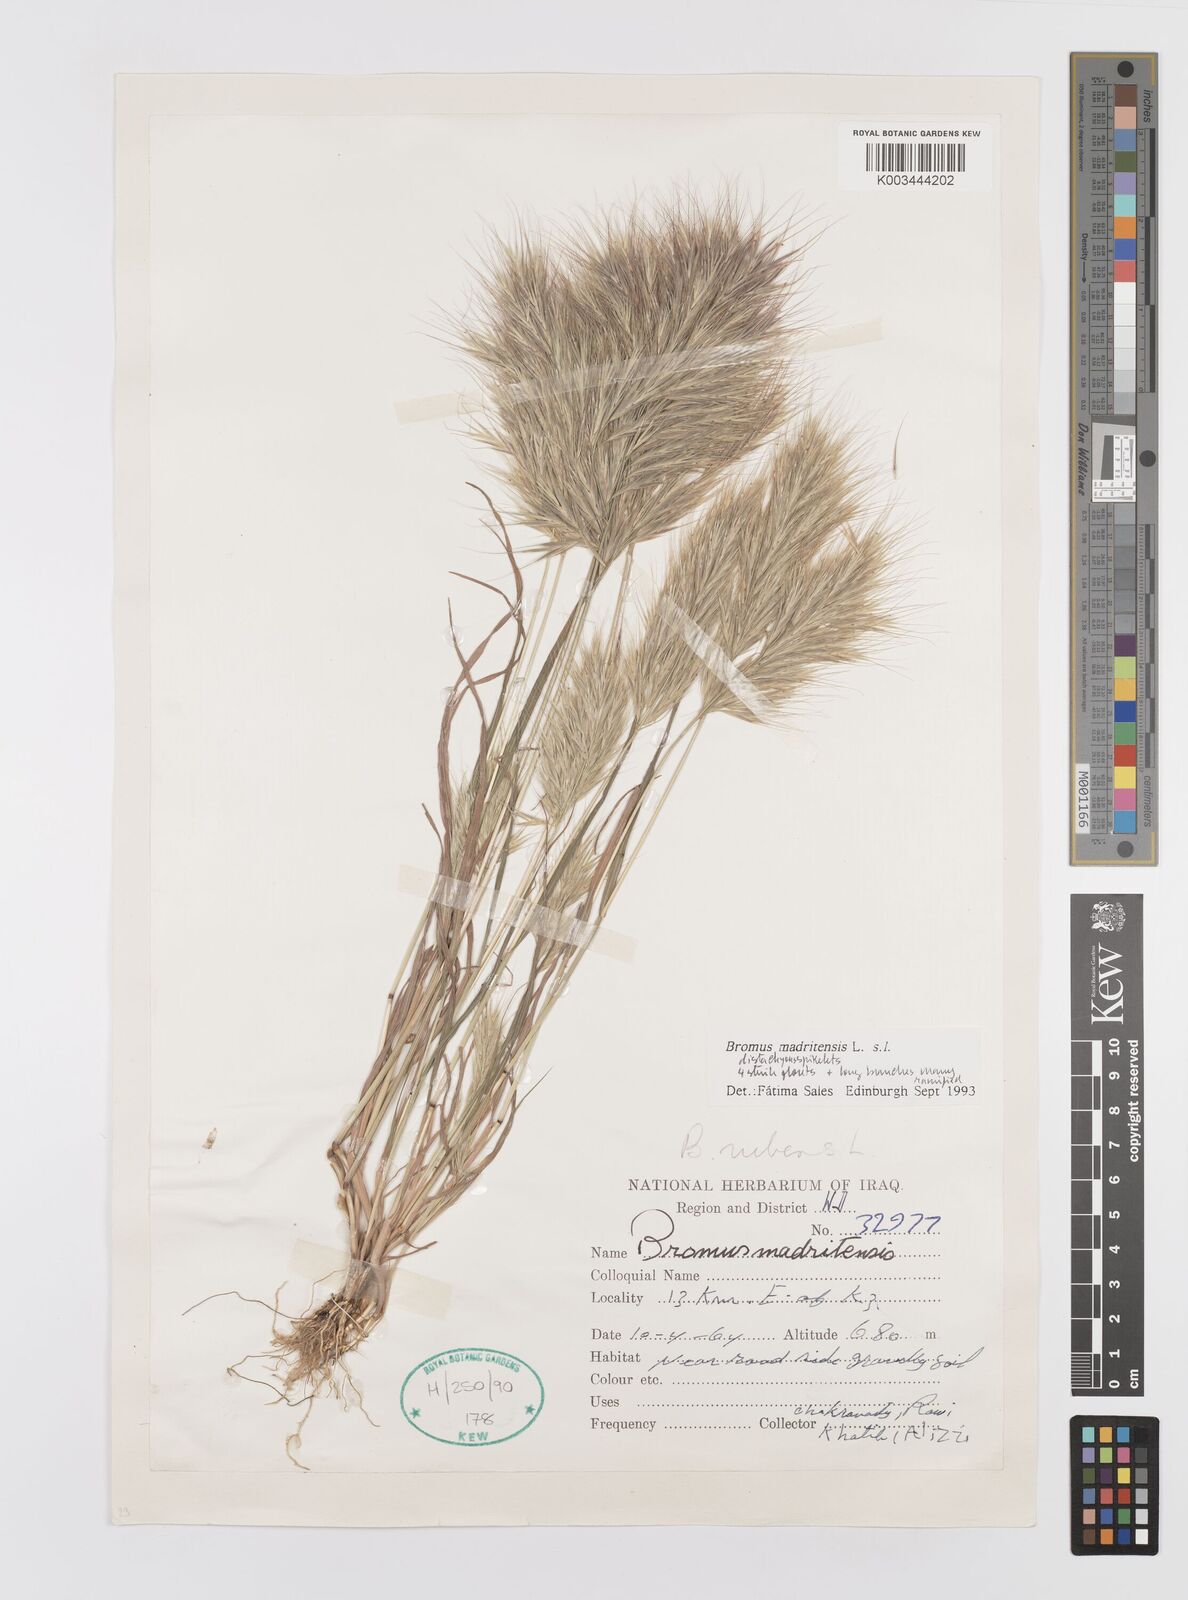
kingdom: Plantae
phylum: Tracheophyta
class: Liliopsida
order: Poales
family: Poaceae
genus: Bromus
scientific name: Bromus madritensis
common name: Compact brome
